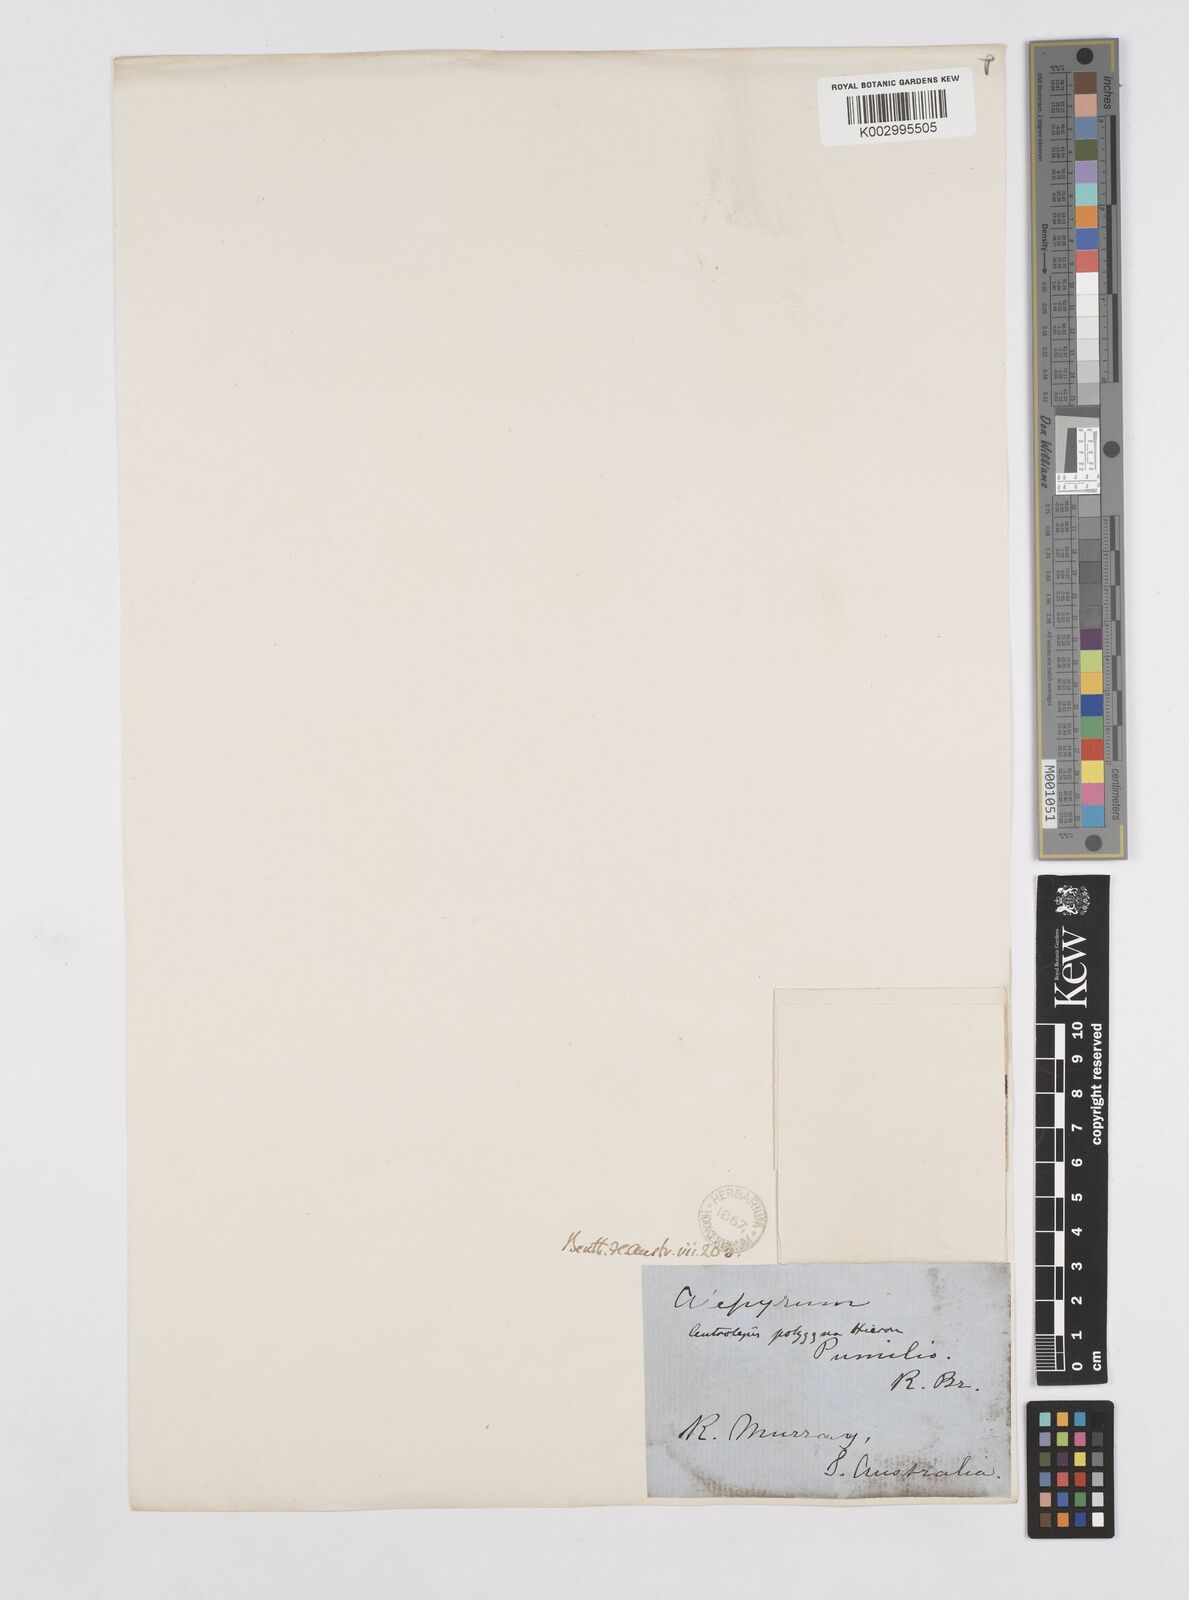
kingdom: Plantae
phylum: Tracheophyta
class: Liliopsida
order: Poales
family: Restionaceae
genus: Centrolepis
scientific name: Centrolepis polygyna
